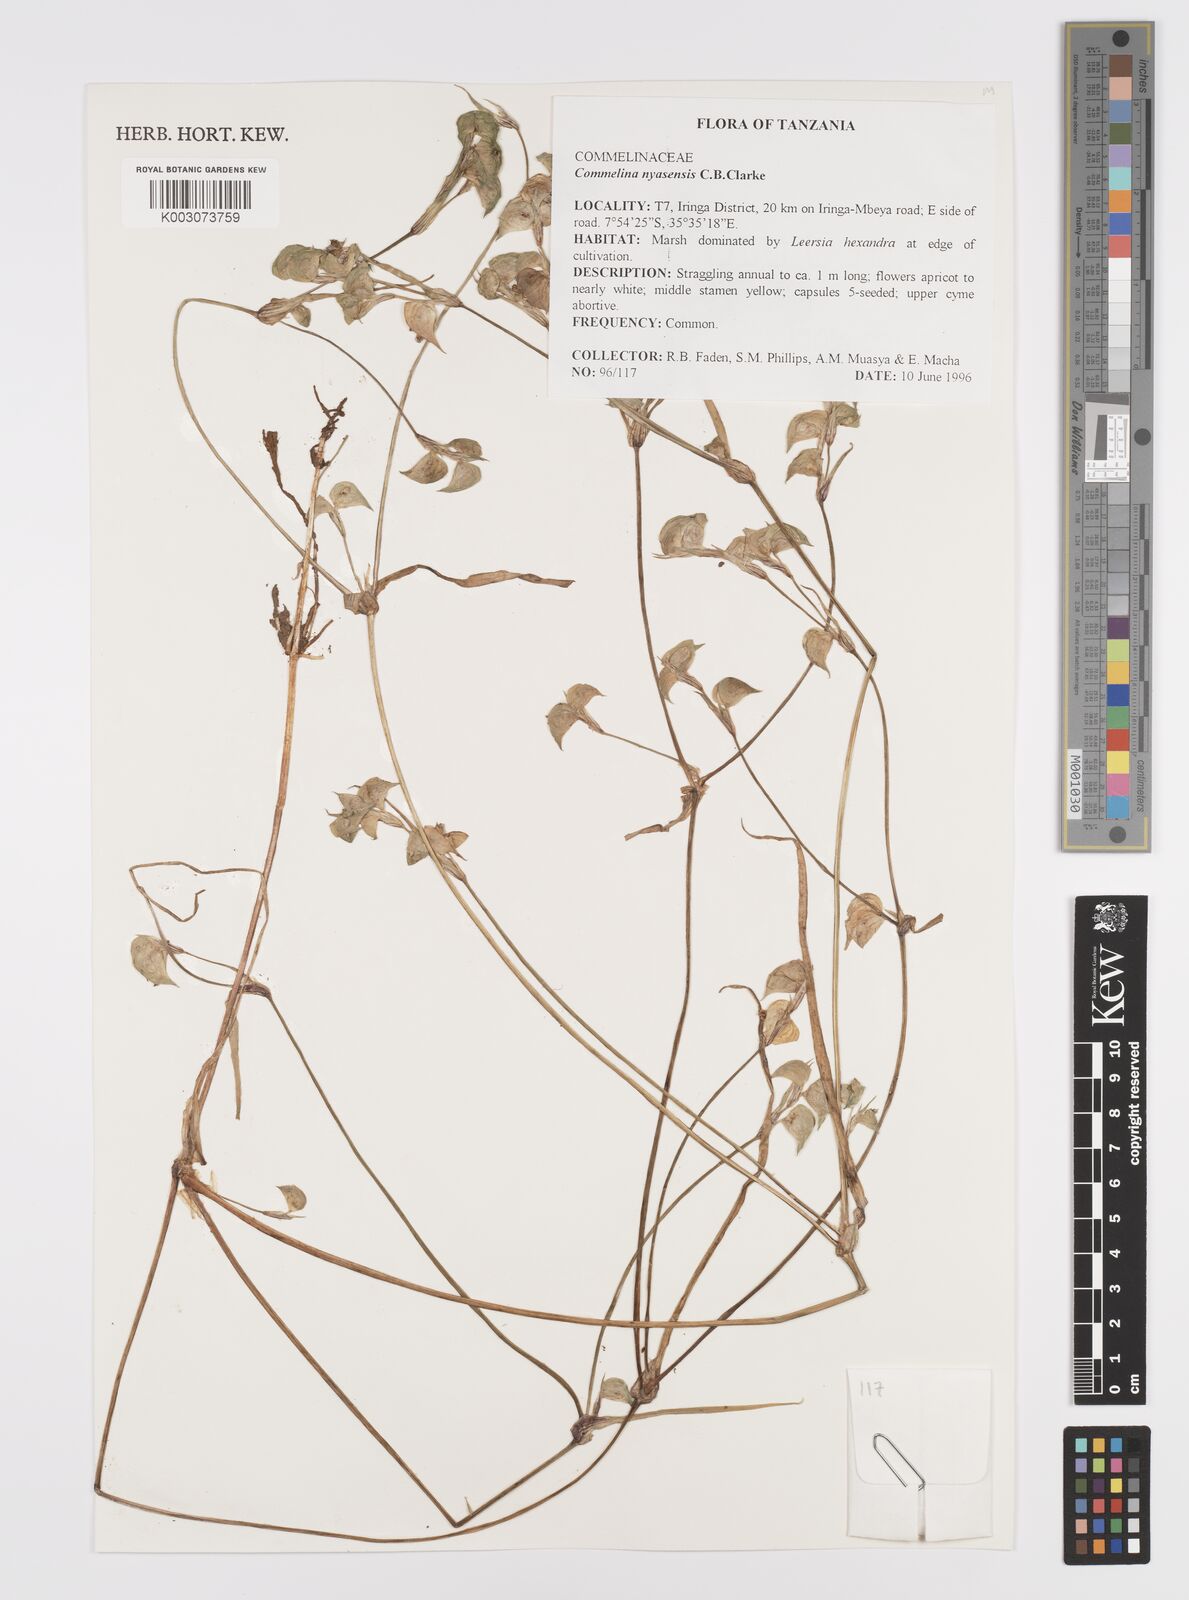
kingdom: Plantae
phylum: Tracheophyta
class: Liliopsida
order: Commelinales
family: Commelinaceae
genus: Commelina
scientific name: Commelina nyasensis
